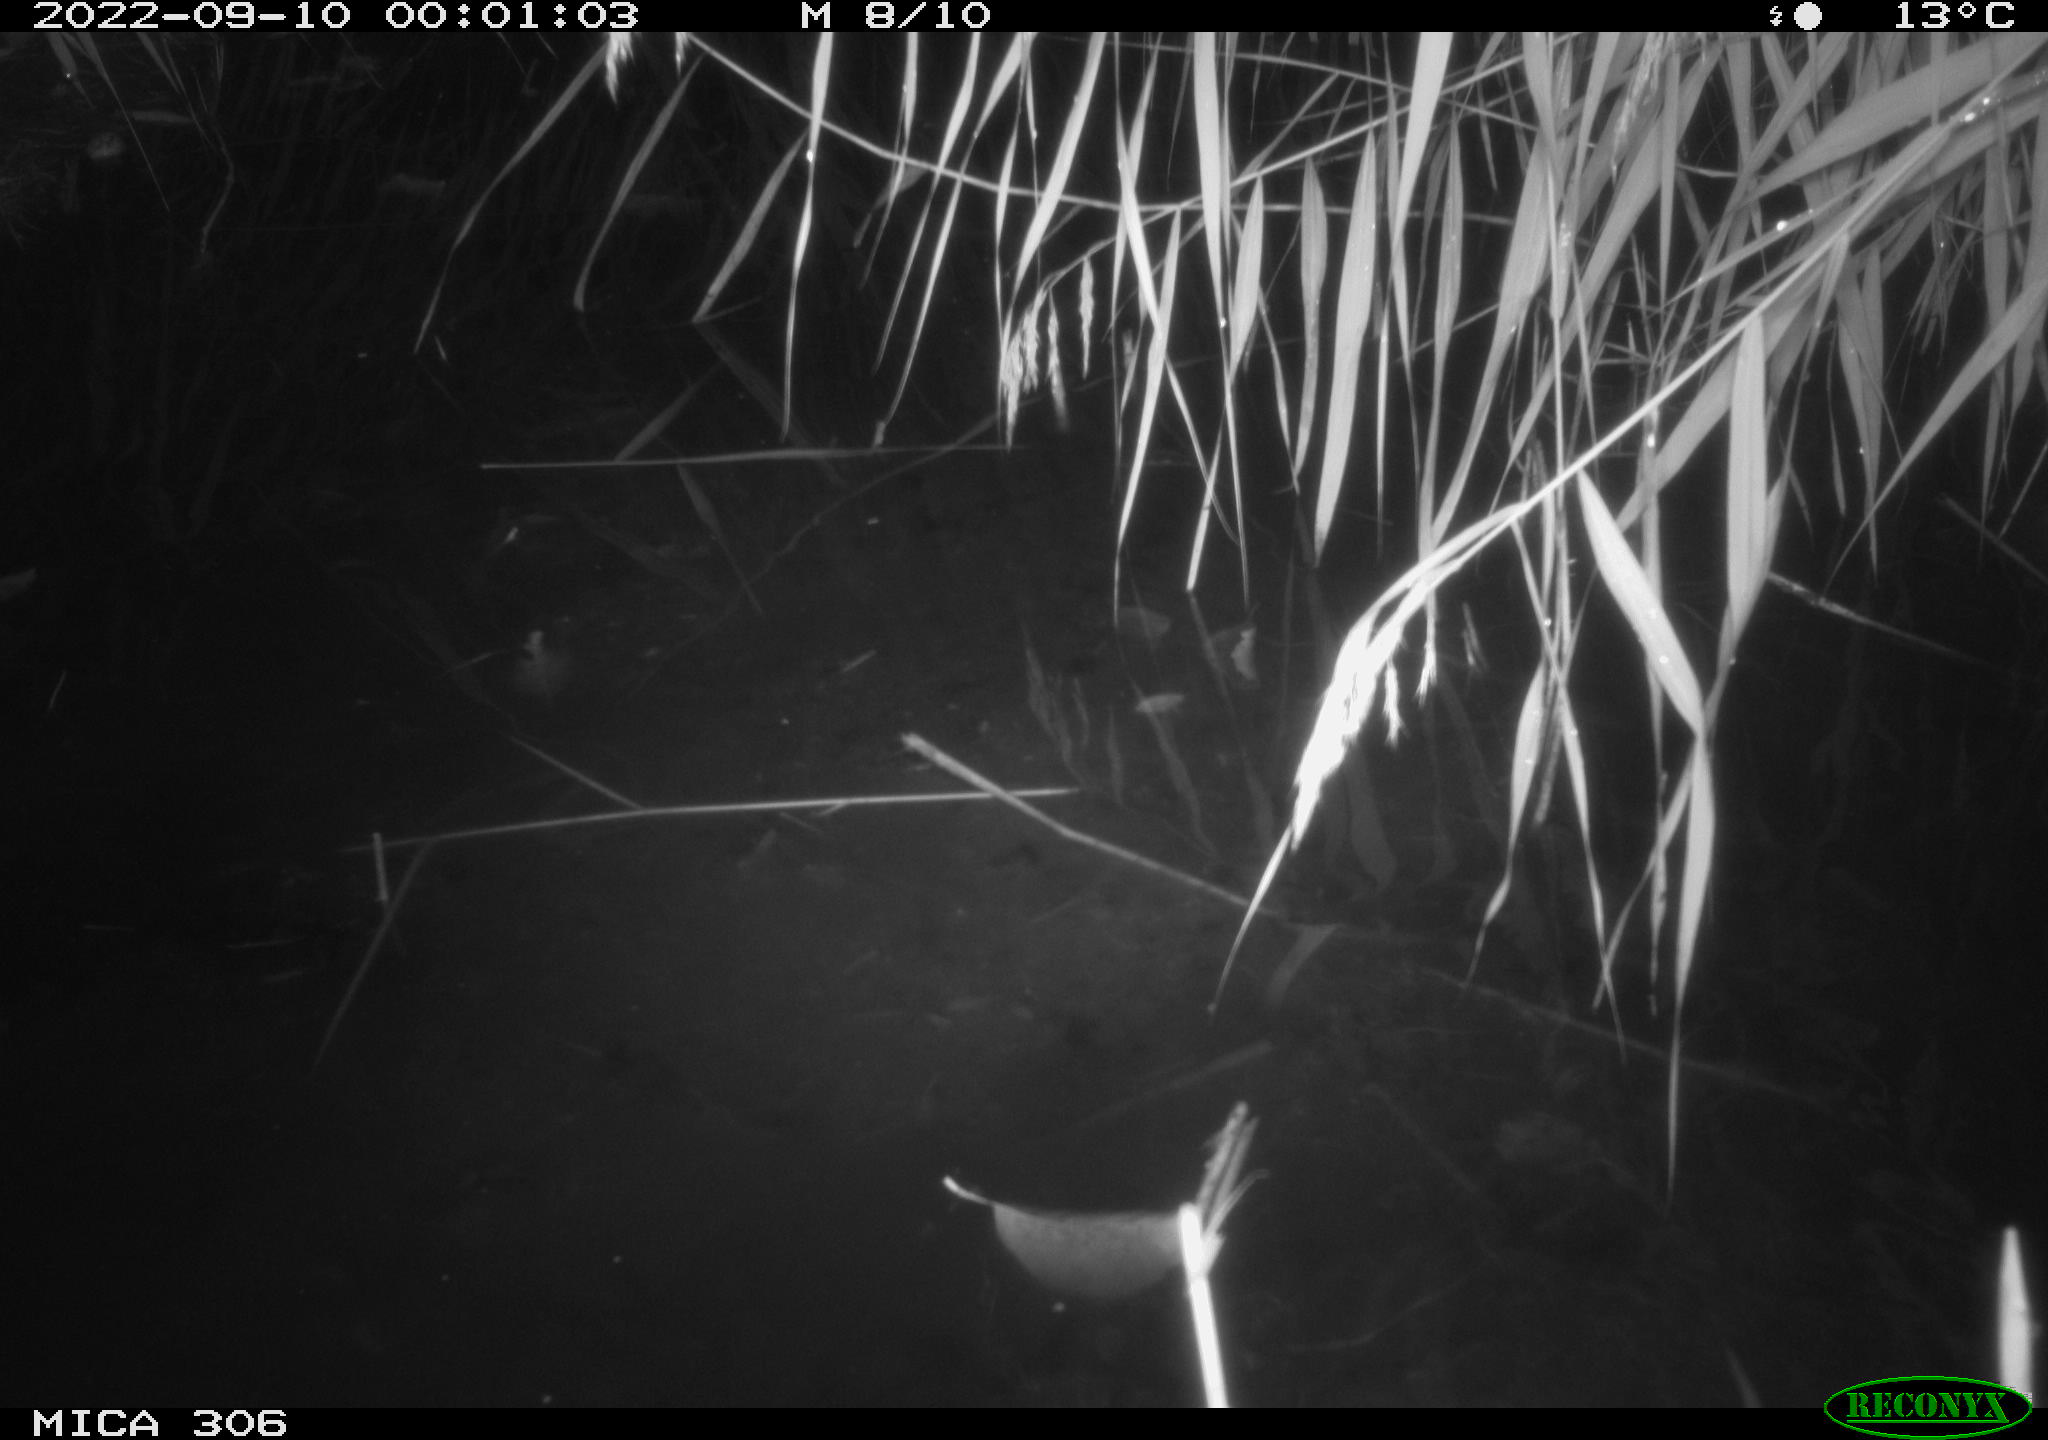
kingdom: Animalia
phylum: Chordata
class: Mammalia
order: Rodentia
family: Muridae
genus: Rattus
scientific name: Rattus norvegicus
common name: Brown rat
